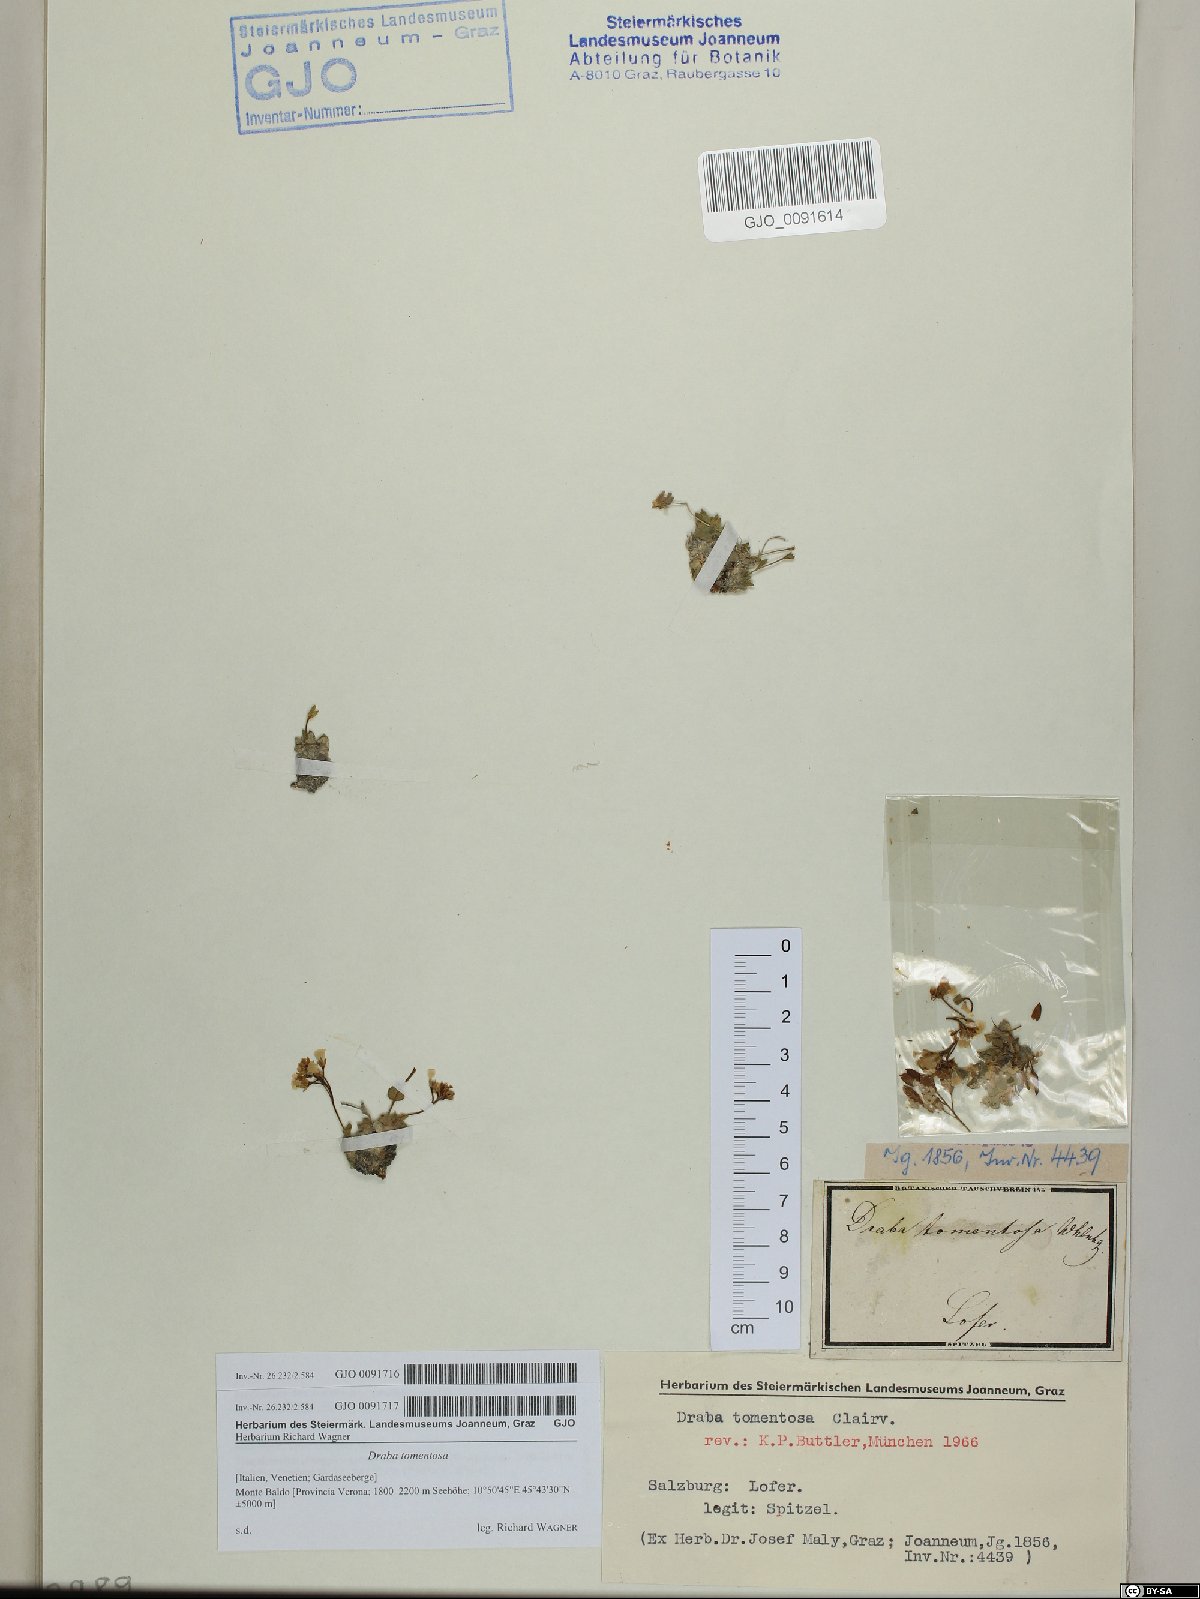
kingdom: Plantae
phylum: Tracheophyta
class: Magnoliopsida
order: Brassicales
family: Brassicaceae
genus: Draba
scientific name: Draba tomentosa
